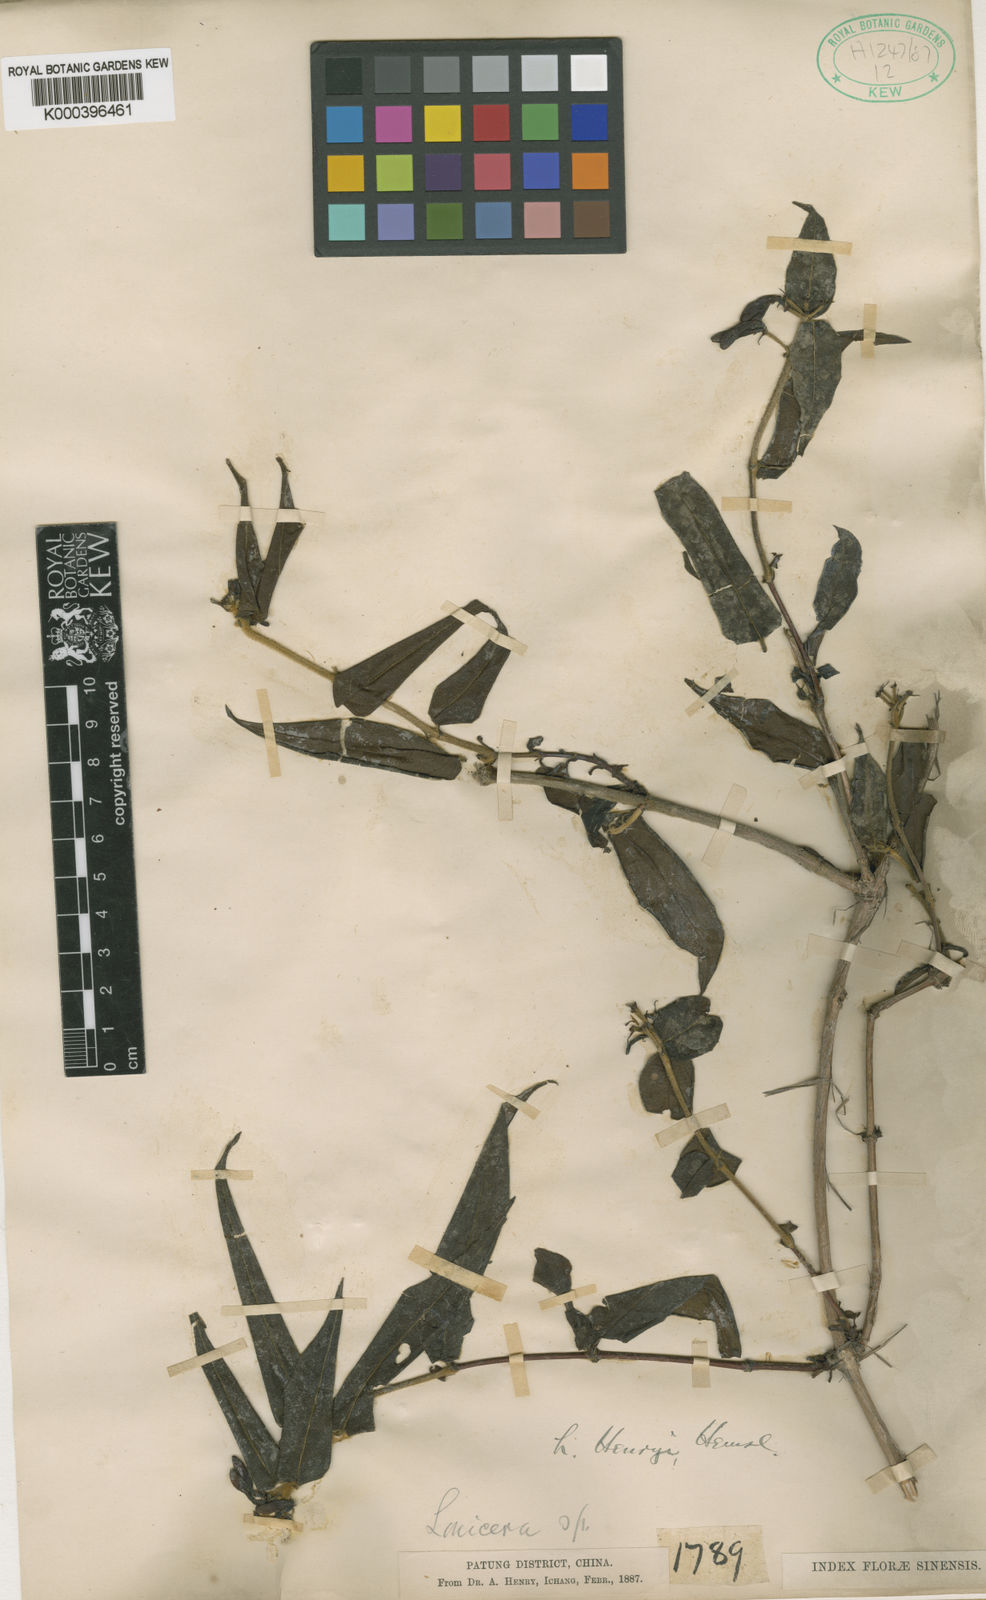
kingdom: Plantae
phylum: Tracheophyta
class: Magnoliopsida
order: Dipsacales
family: Caprifoliaceae
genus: Lonicera
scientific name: Lonicera acuminata
